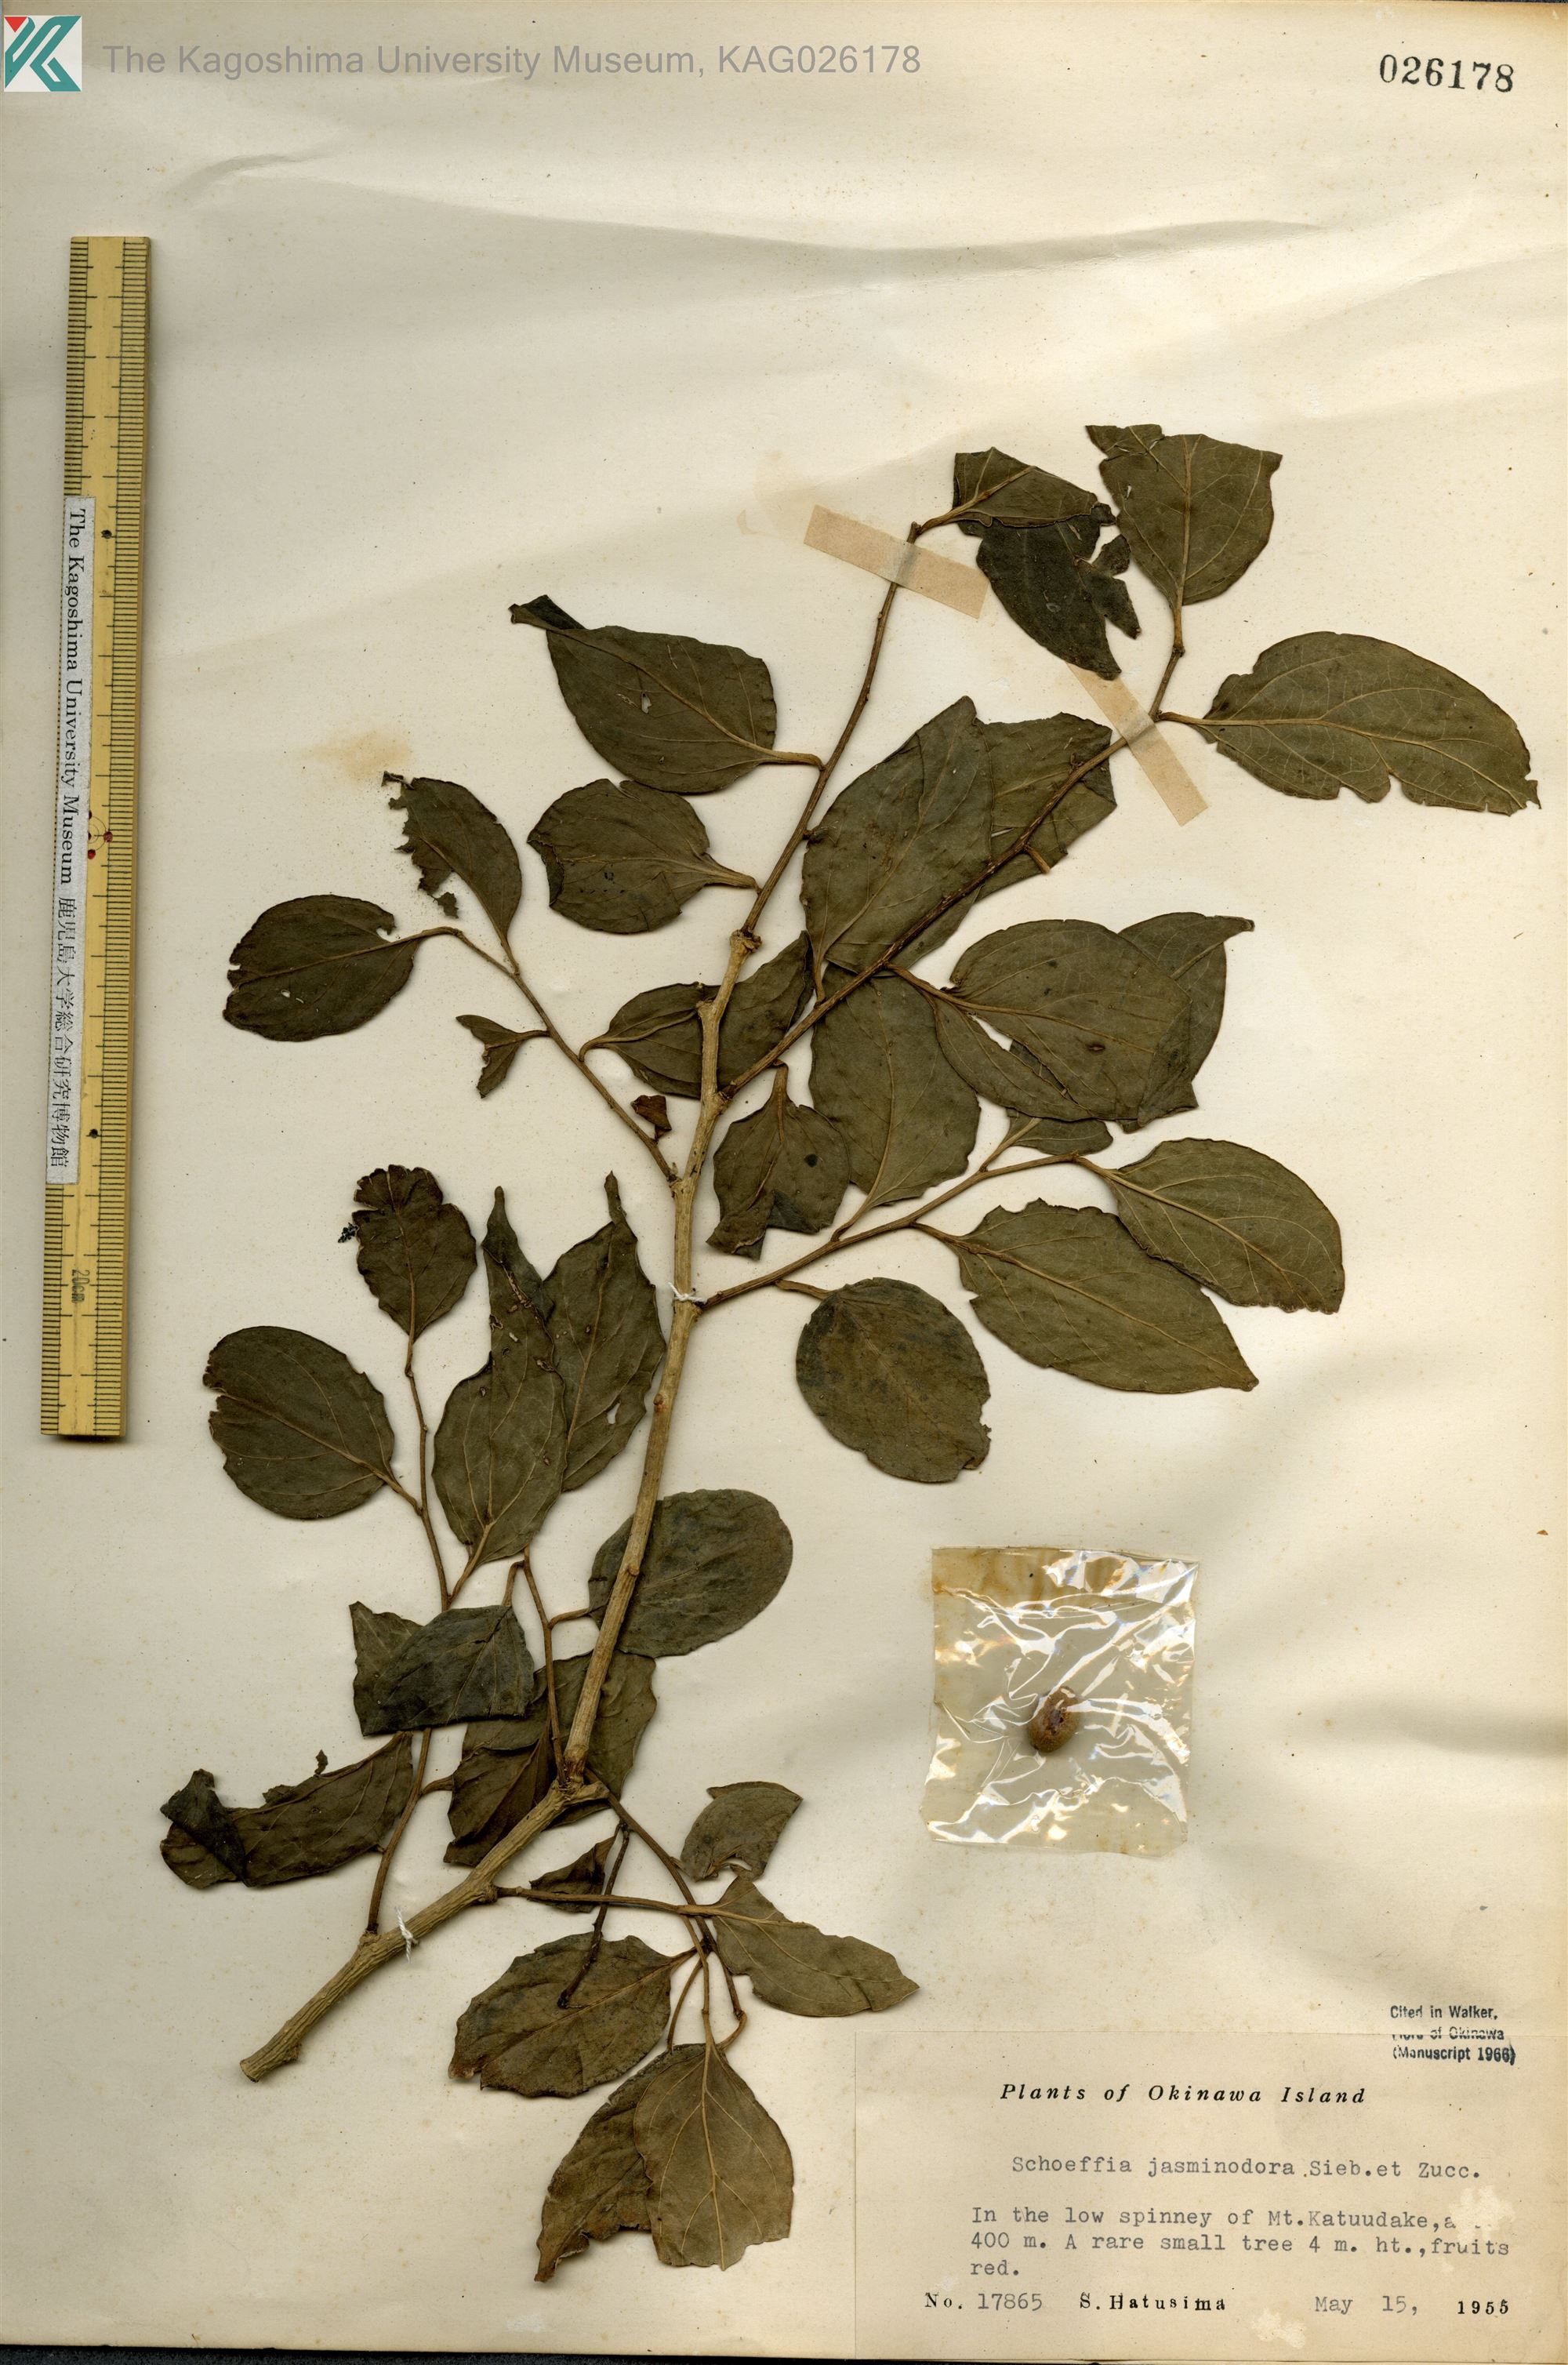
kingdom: Plantae
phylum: Tracheophyta
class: Magnoliopsida
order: Santalales
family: Schoepfiaceae
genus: Schoepfia
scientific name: Schoepfia jasminodora
